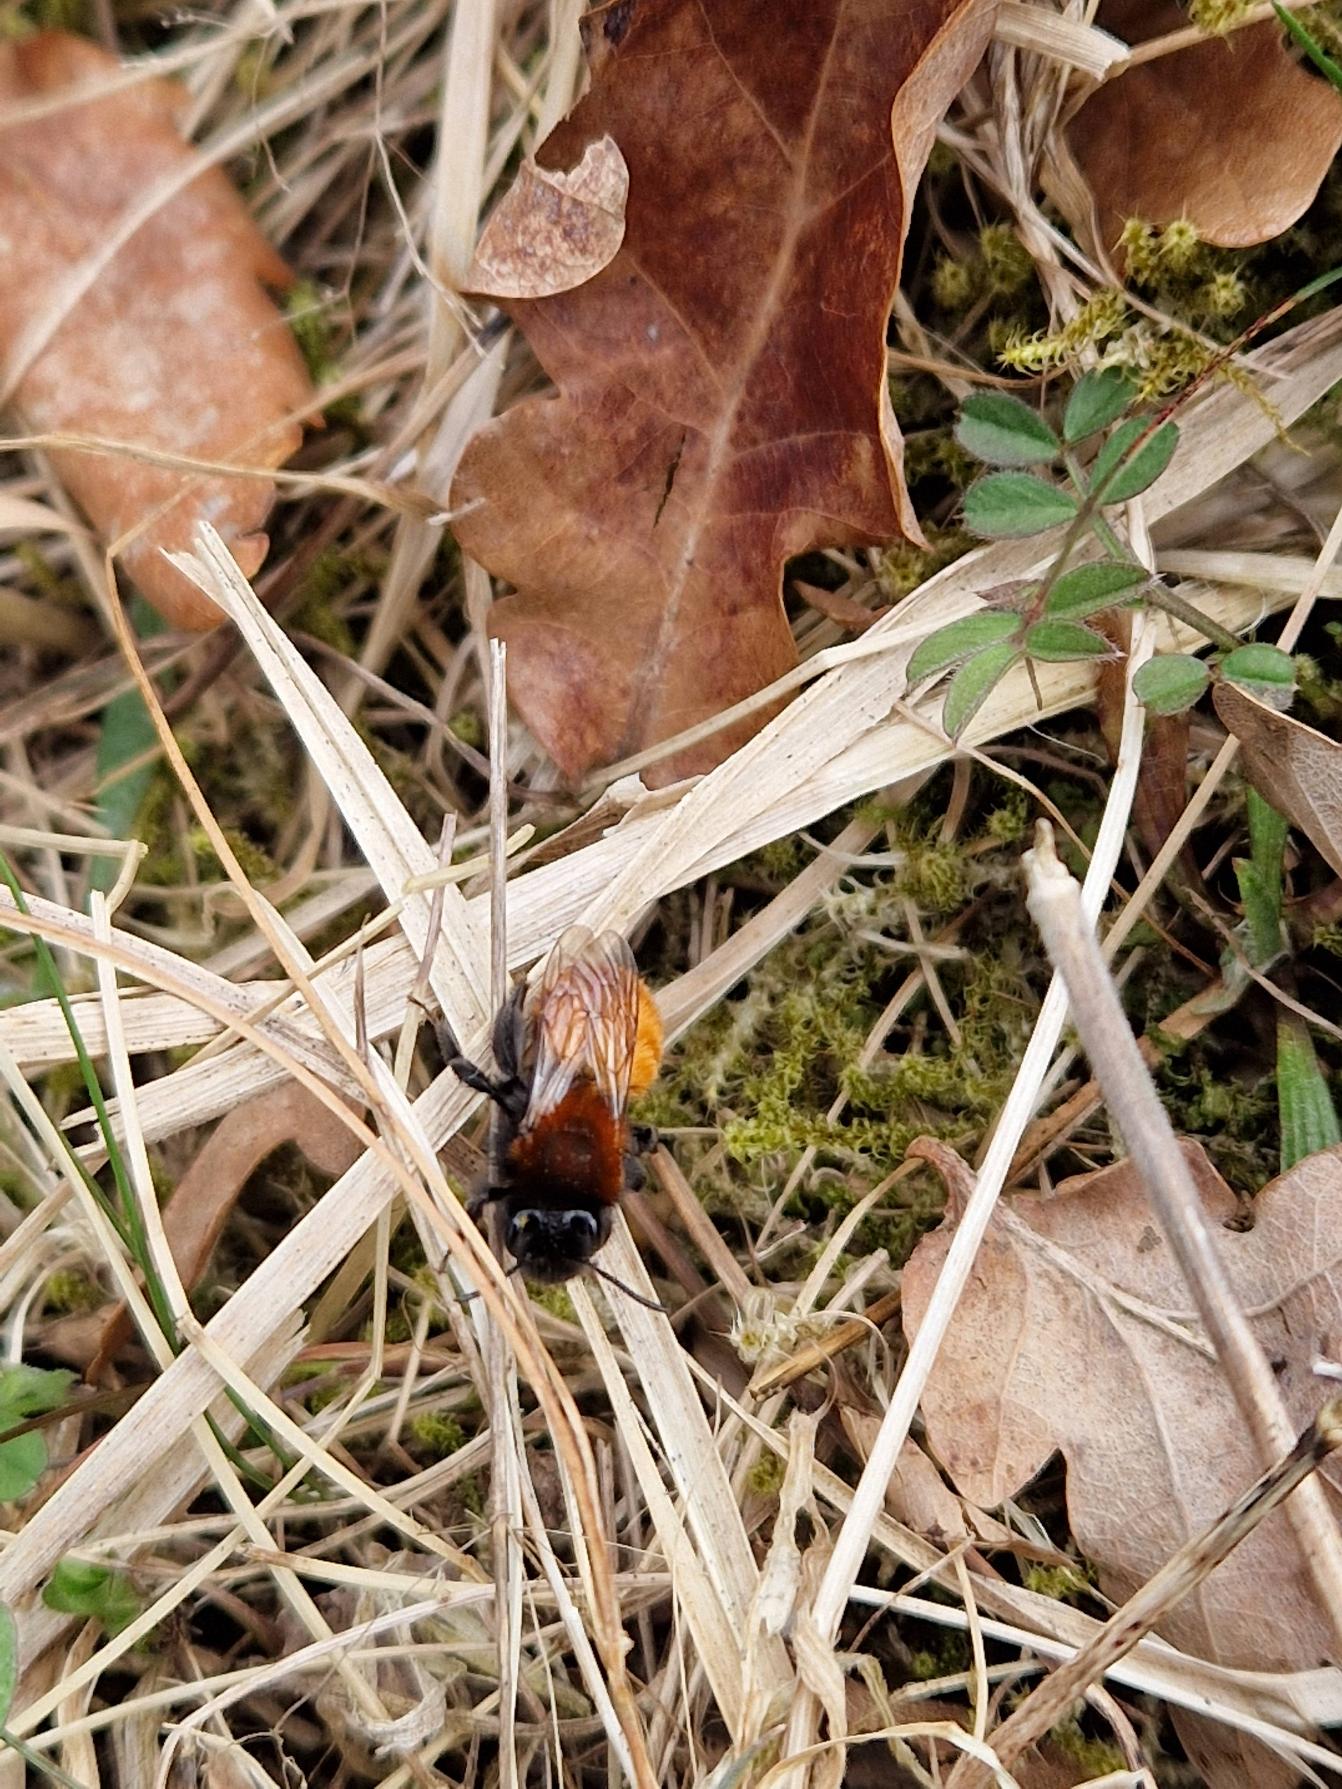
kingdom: Animalia
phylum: Arthropoda
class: Insecta
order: Hymenoptera
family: Andrenidae
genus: Andrena
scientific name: Andrena fulva
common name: Rødpelset jordbi
